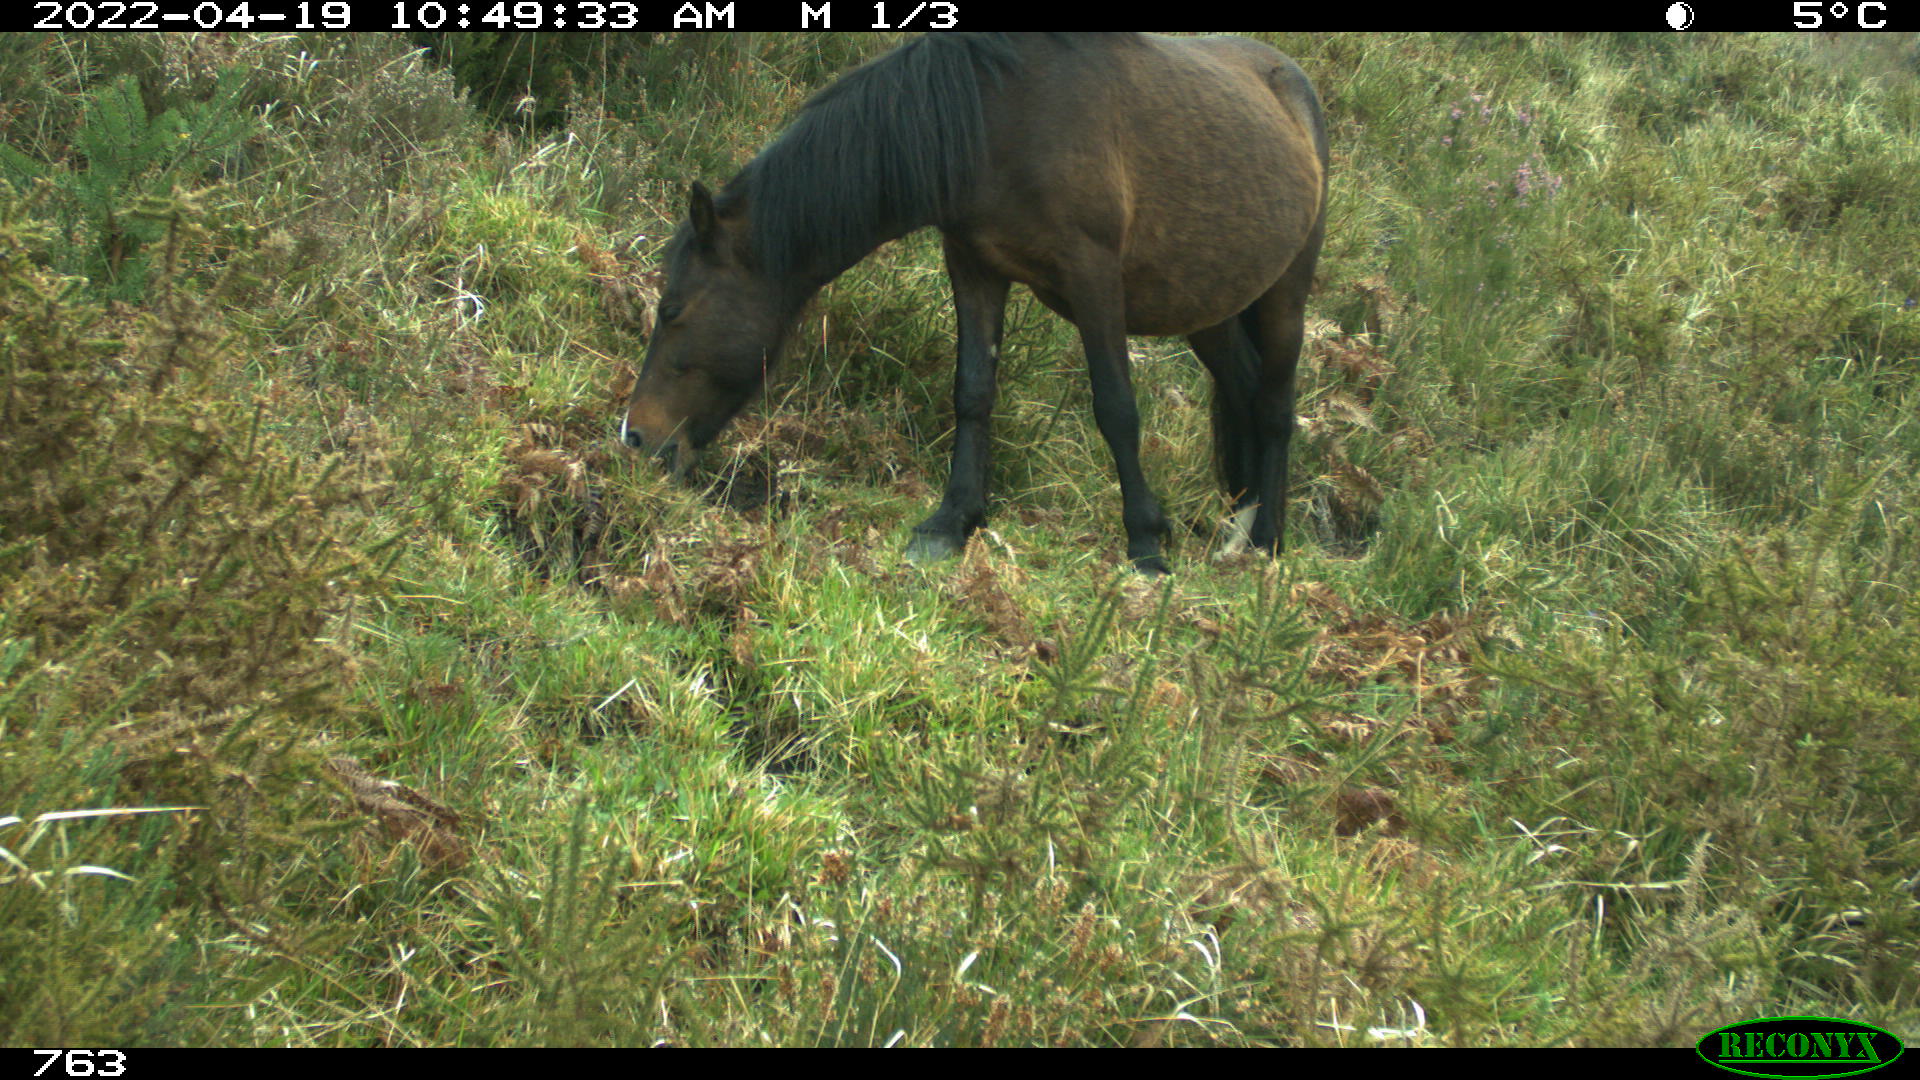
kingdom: Animalia
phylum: Chordata
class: Mammalia
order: Perissodactyla
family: Equidae
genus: Equus
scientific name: Equus caballus
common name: Horse
